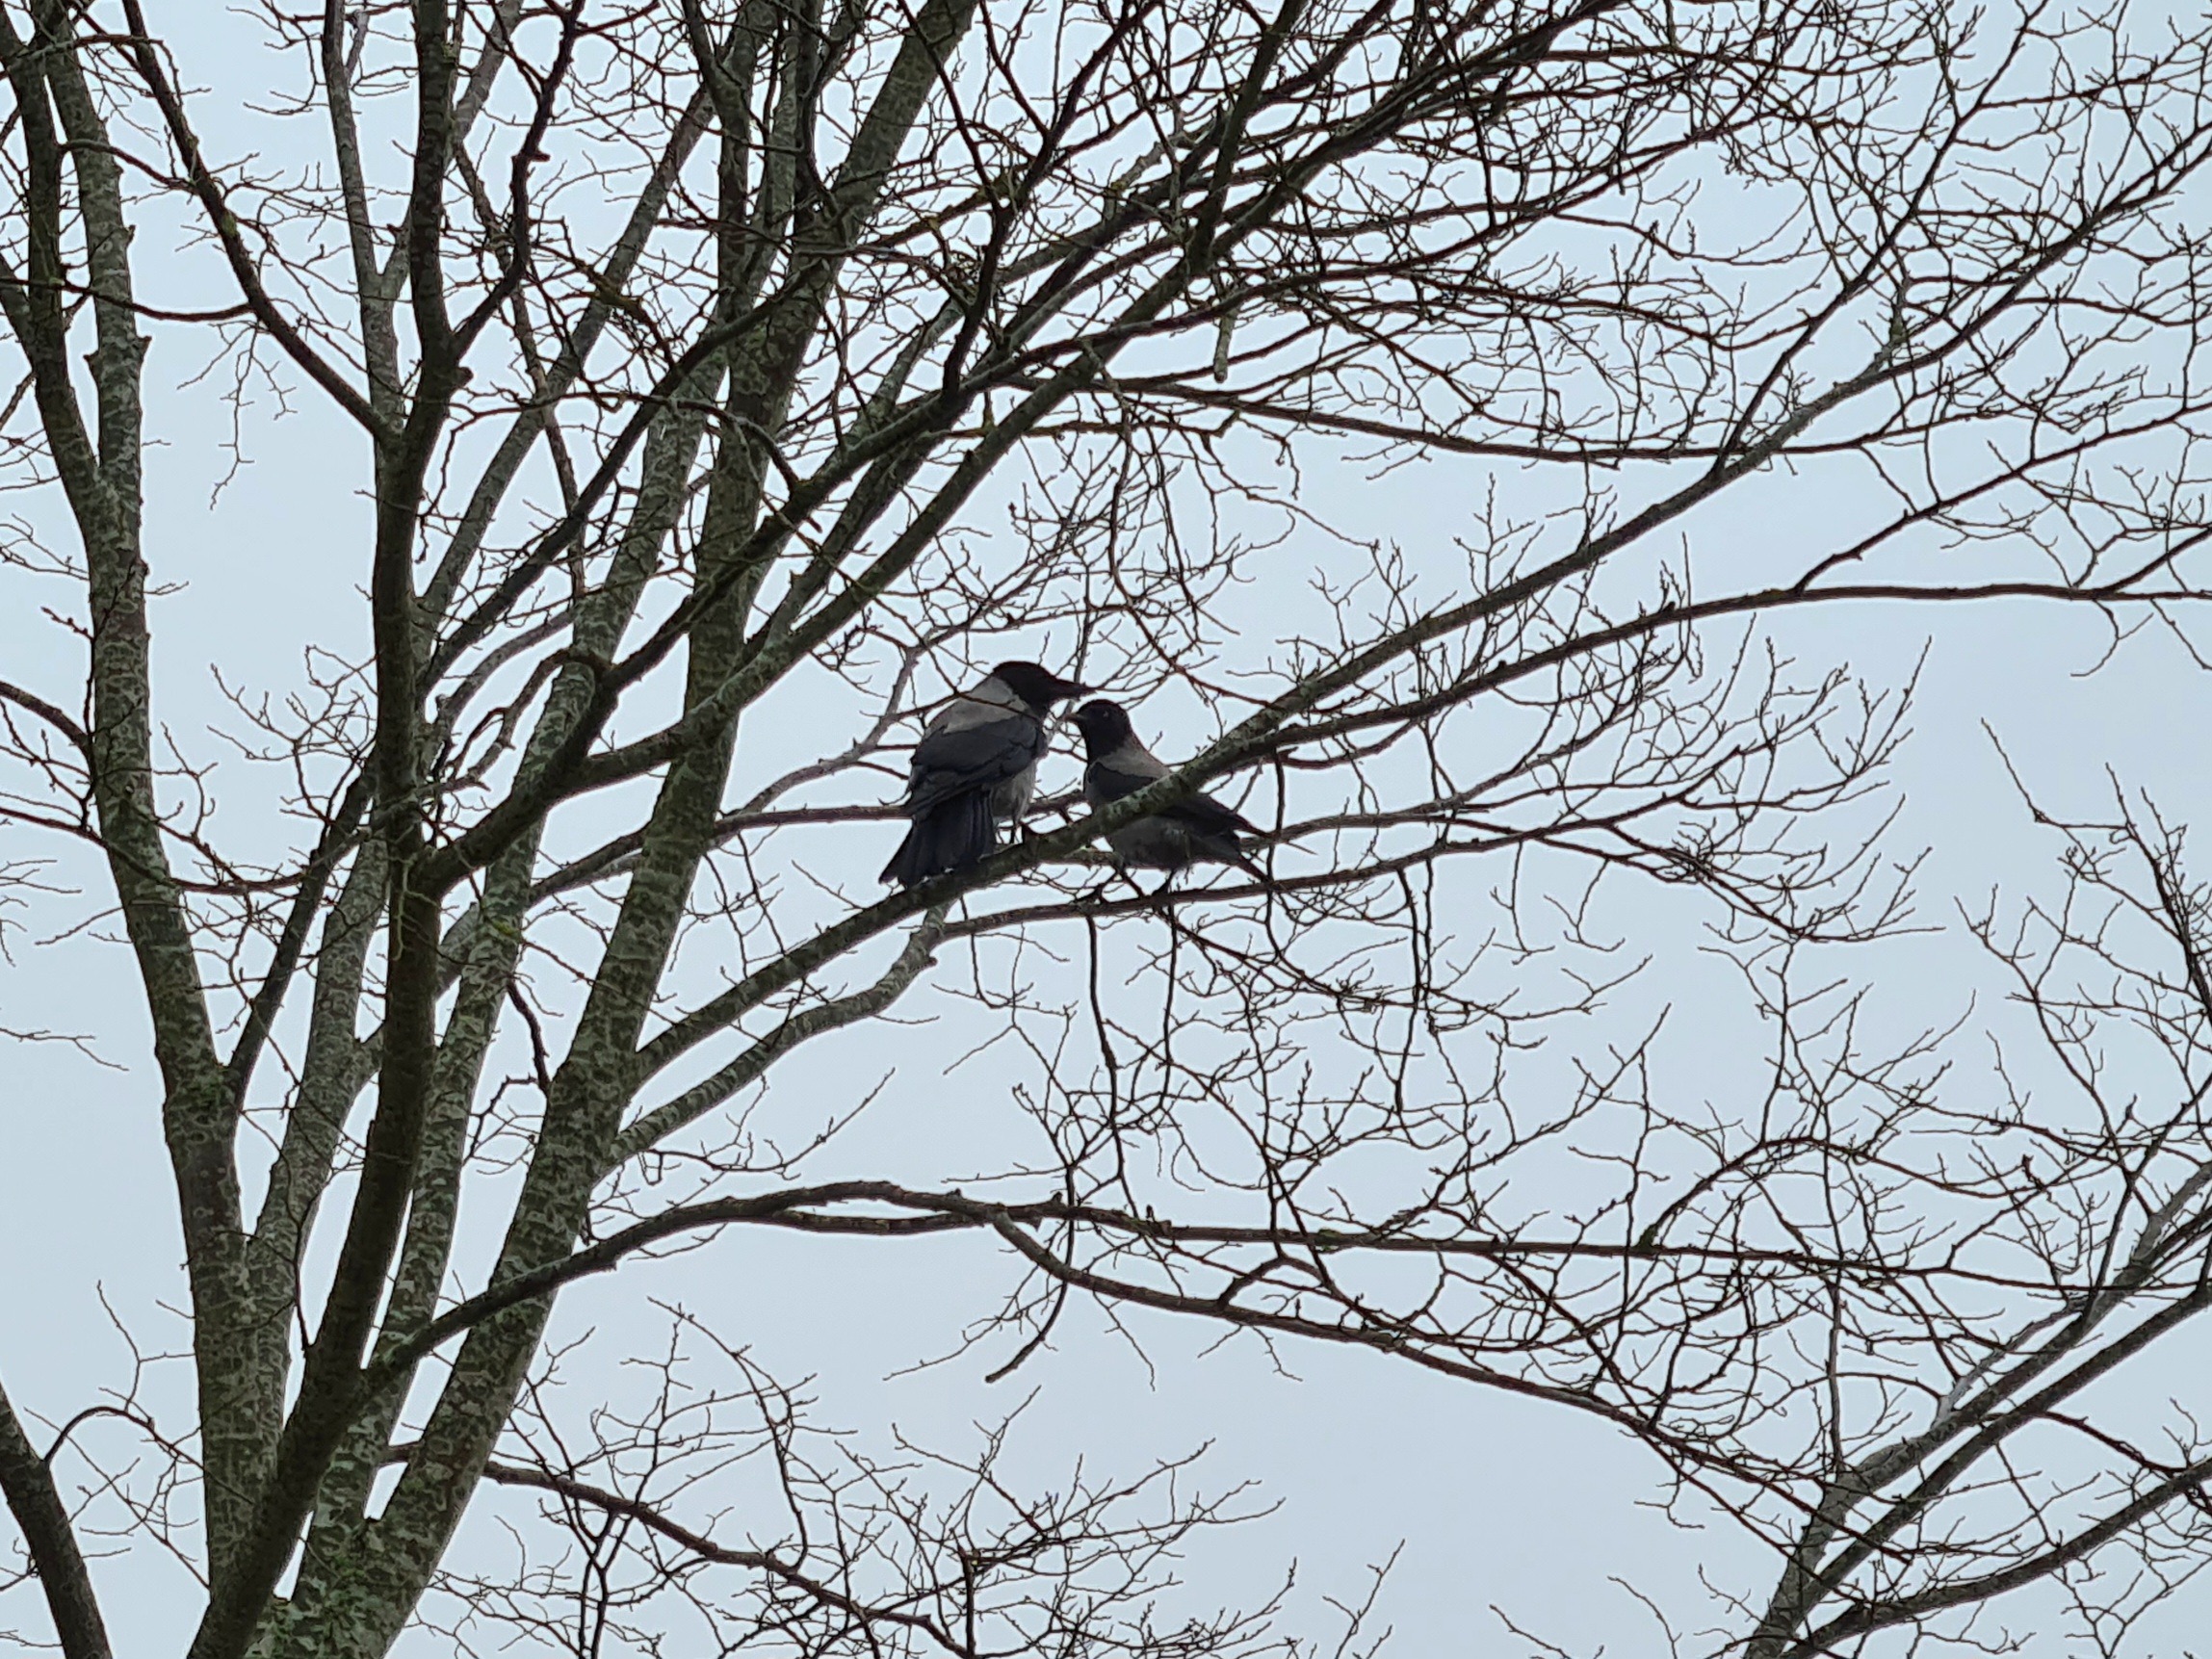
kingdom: Animalia
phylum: Chordata
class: Aves
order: Passeriformes
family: Corvidae
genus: Corvus
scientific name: Corvus cornix
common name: Gråkrage
